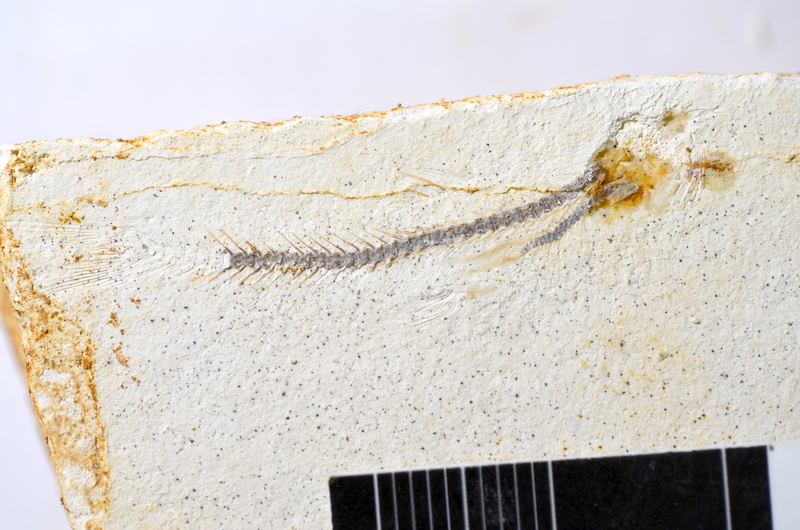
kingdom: Animalia
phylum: Chordata
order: Salmoniformes
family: Orthogonikleithridae
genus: Orthogonikleithrus
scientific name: Orthogonikleithrus hoelli
